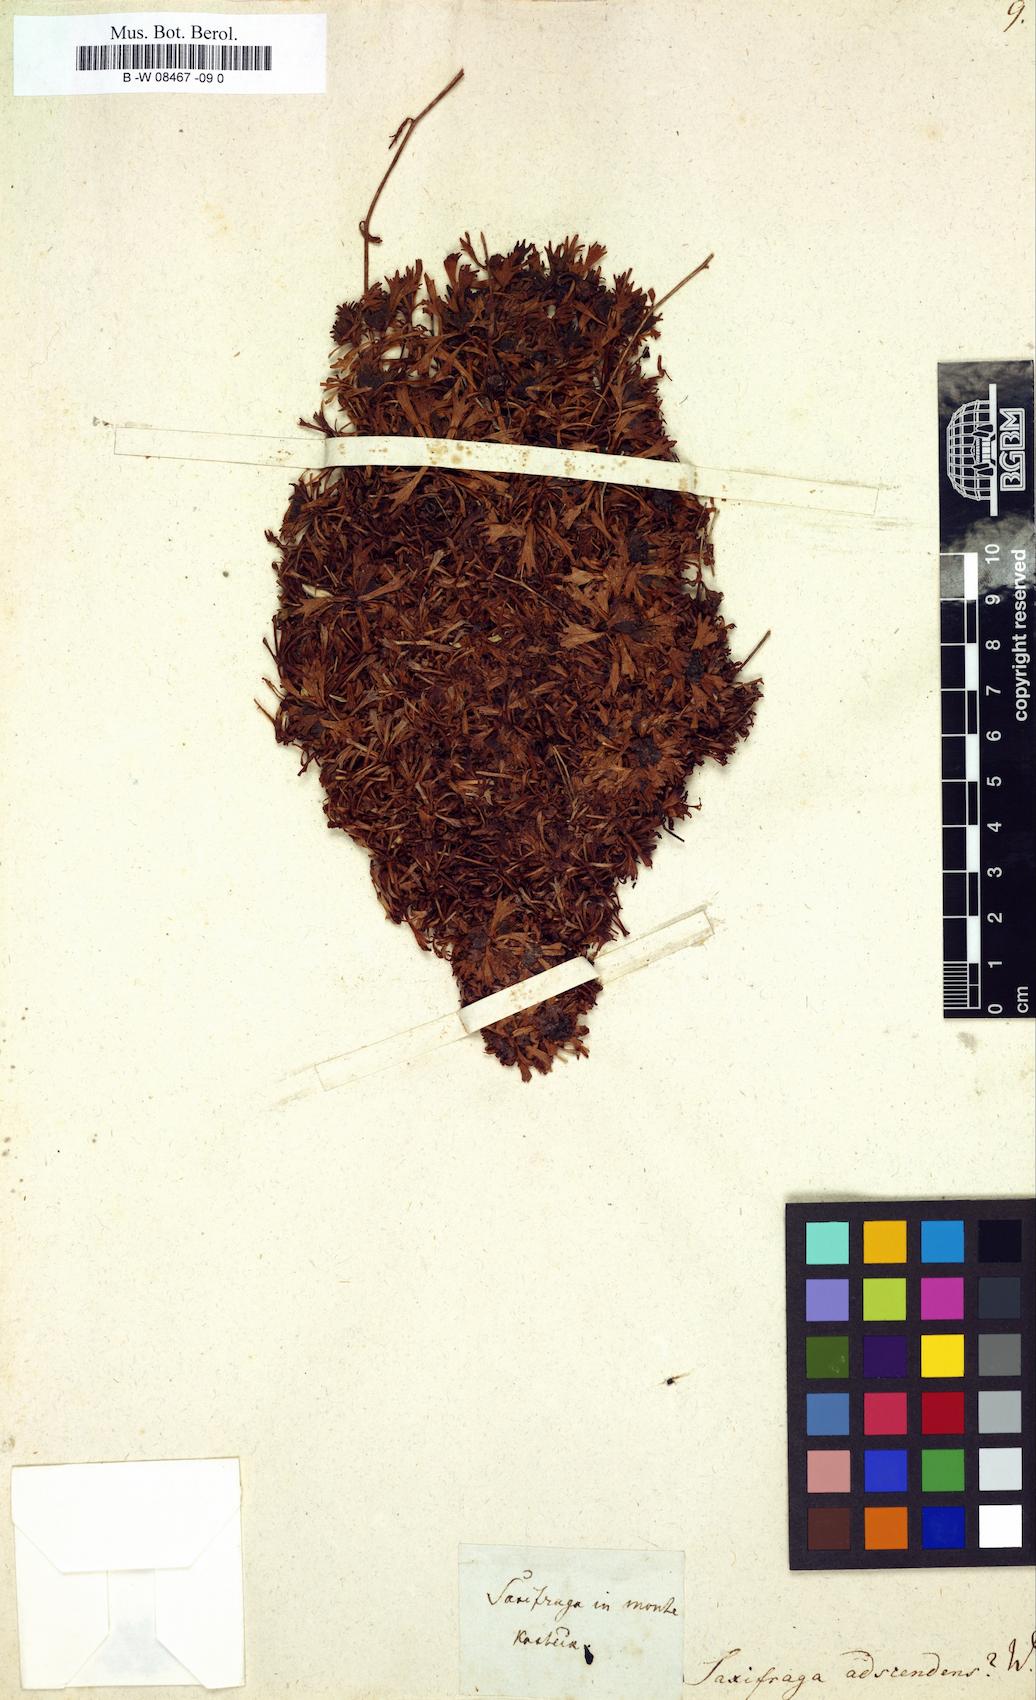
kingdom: Plantae
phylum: Tracheophyta
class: Magnoliopsida
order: Saxifragales
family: Saxifragaceae
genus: Saxifraga
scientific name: Saxifraga adscendens
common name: Ascending saxifrage
